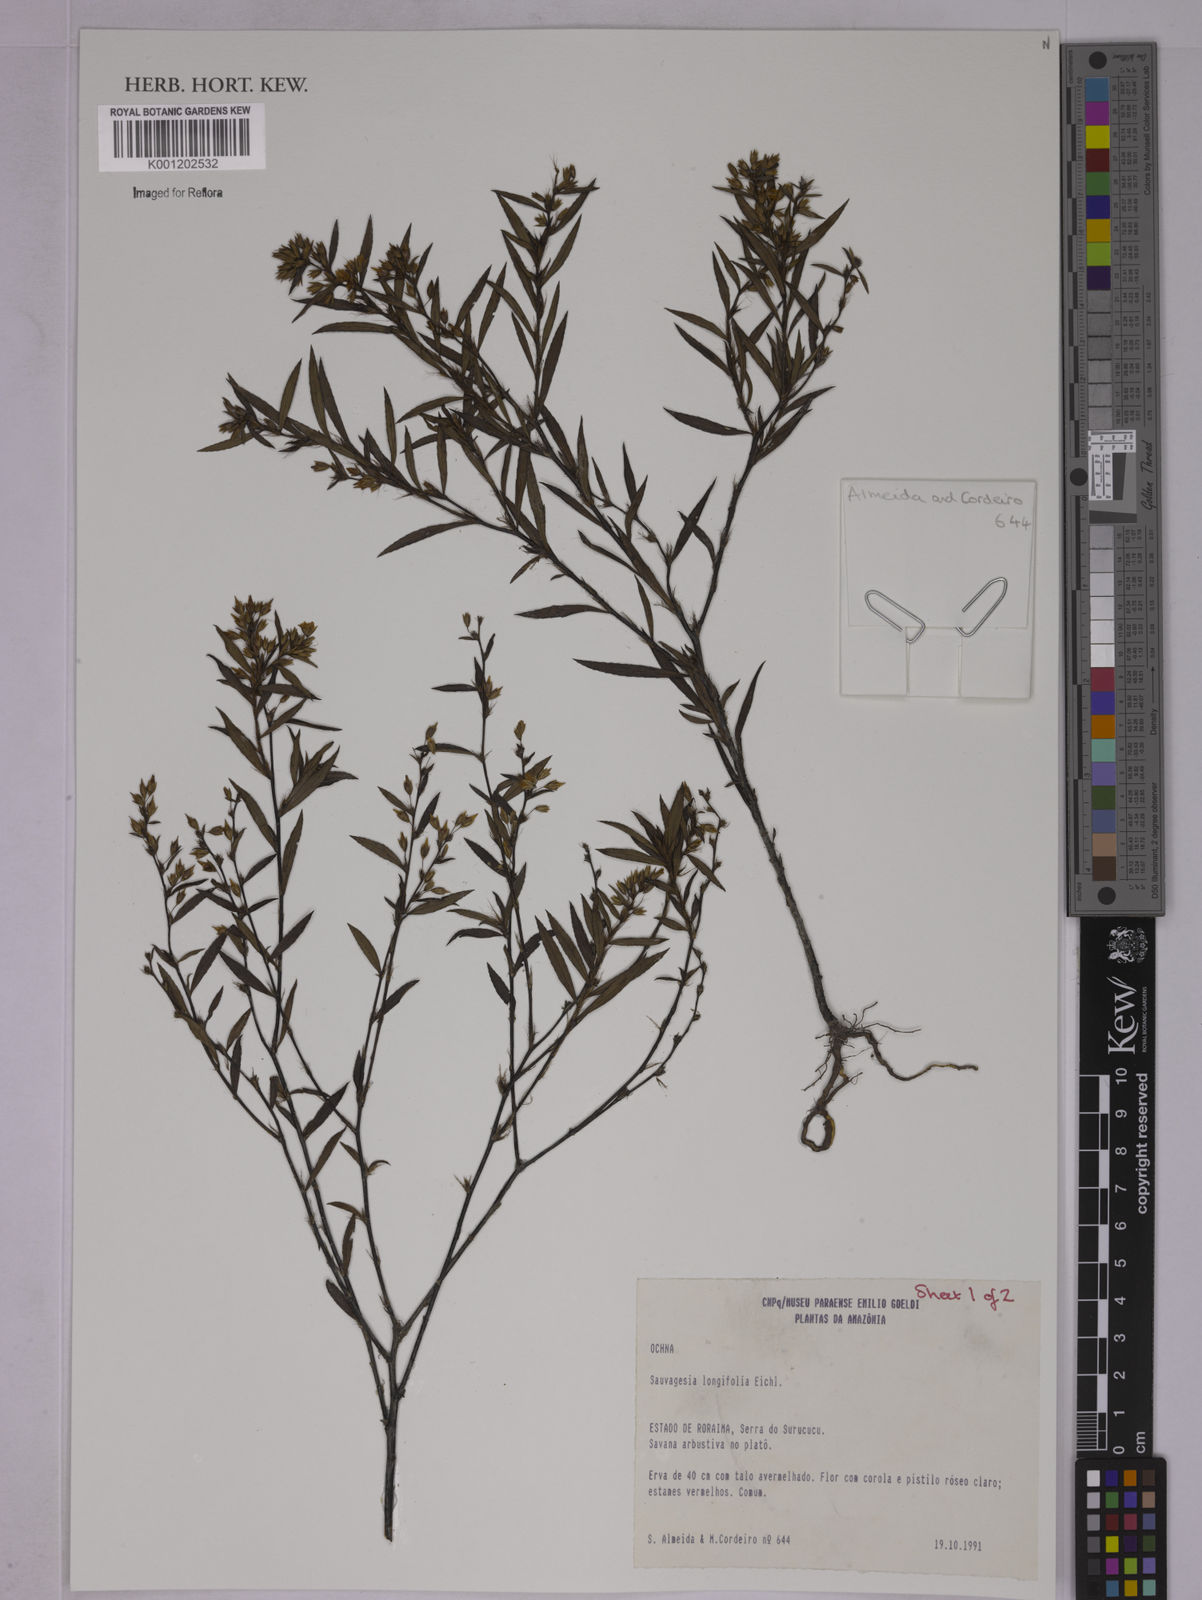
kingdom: Plantae
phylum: Tracheophyta
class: Magnoliopsida
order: Malpighiales
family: Ochnaceae
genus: Sauvagesia
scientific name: Sauvagesia longifolia
